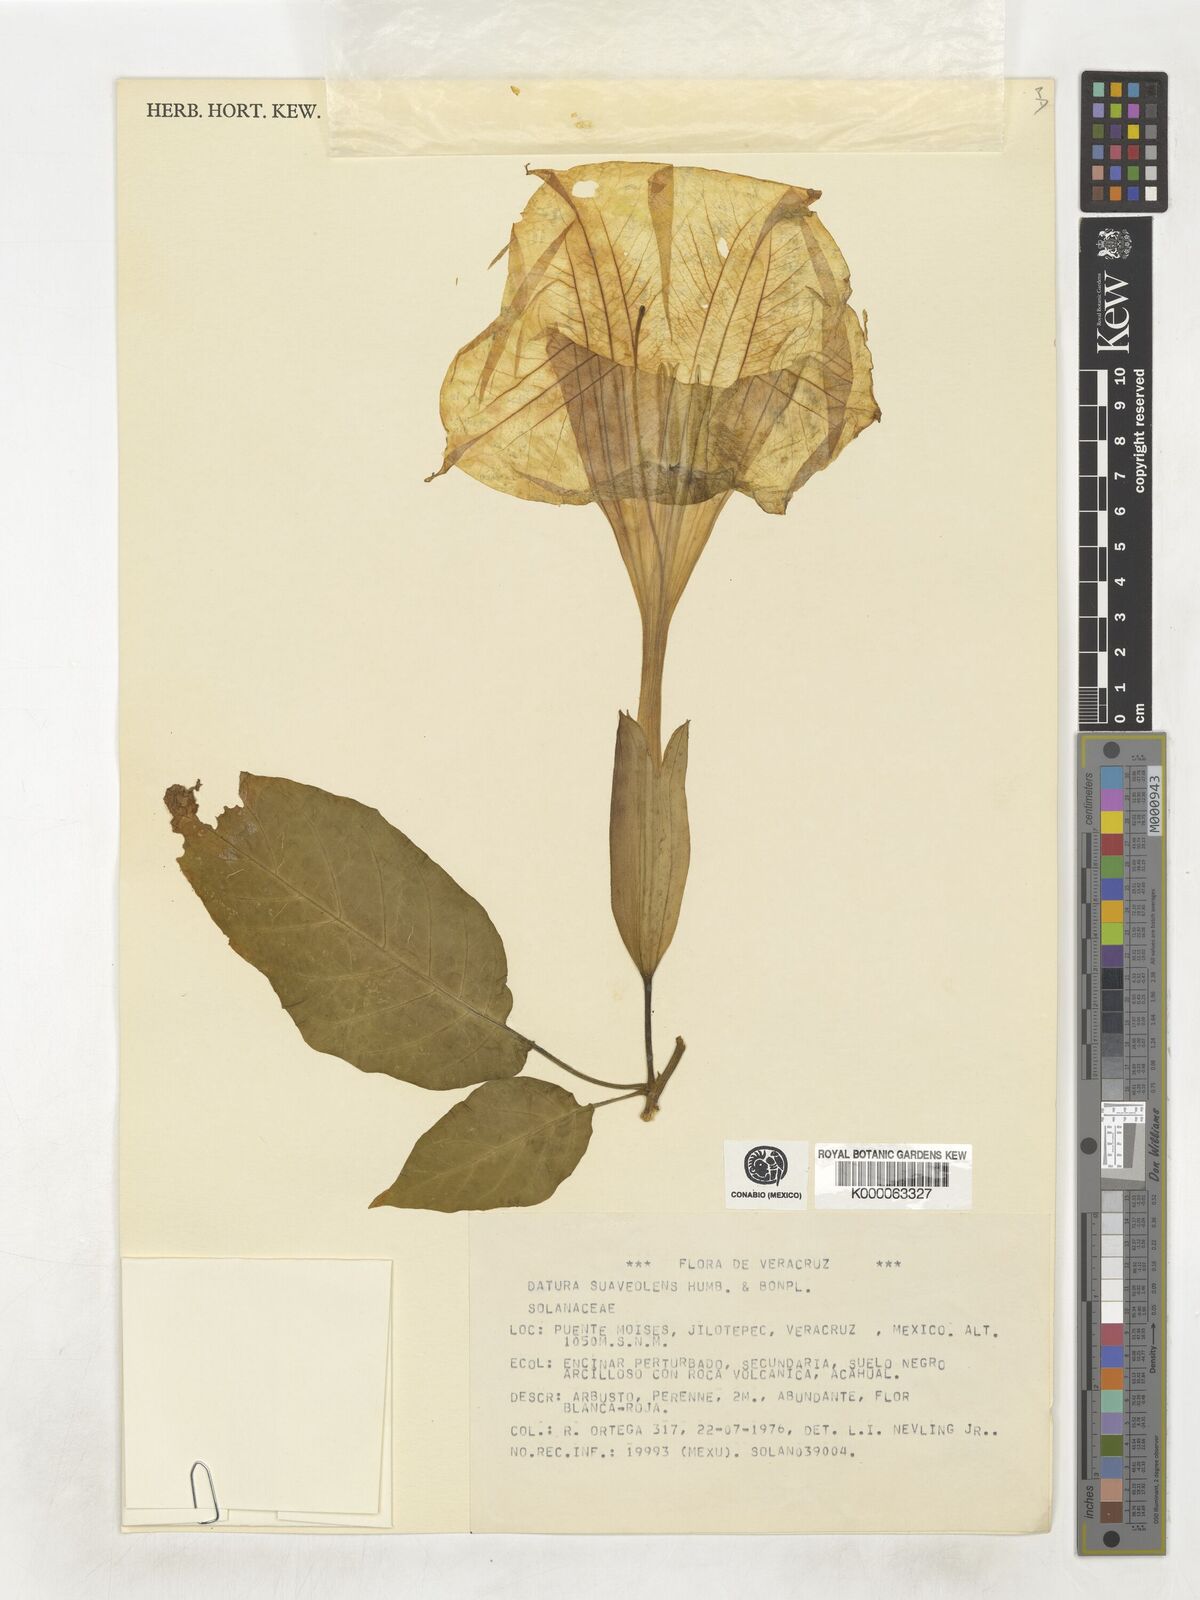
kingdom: Plantae
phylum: Tracheophyta
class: Magnoliopsida
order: Solanales
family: Solanaceae
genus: Brugmansia
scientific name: Brugmansia
